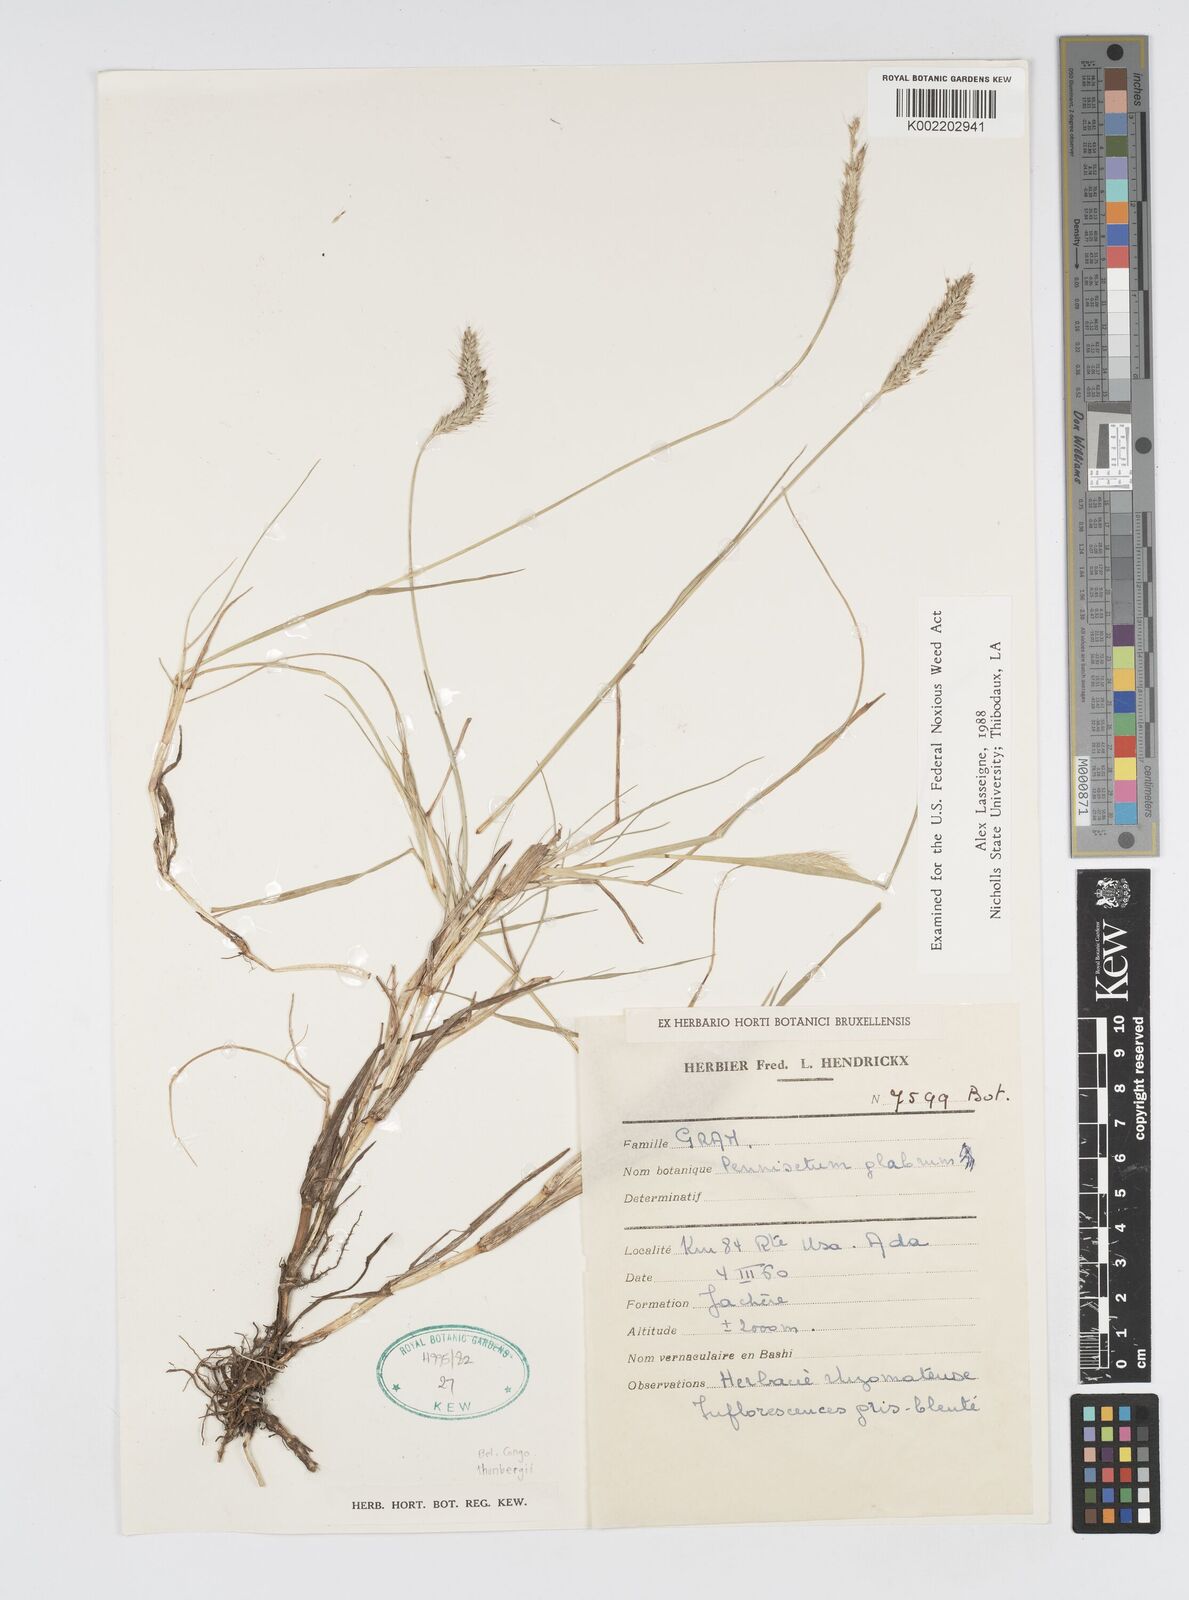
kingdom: Plantae
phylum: Tracheophyta
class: Liliopsida
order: Poales
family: Poaceae
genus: Cenchrus
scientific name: Cenchrus geniculatus
